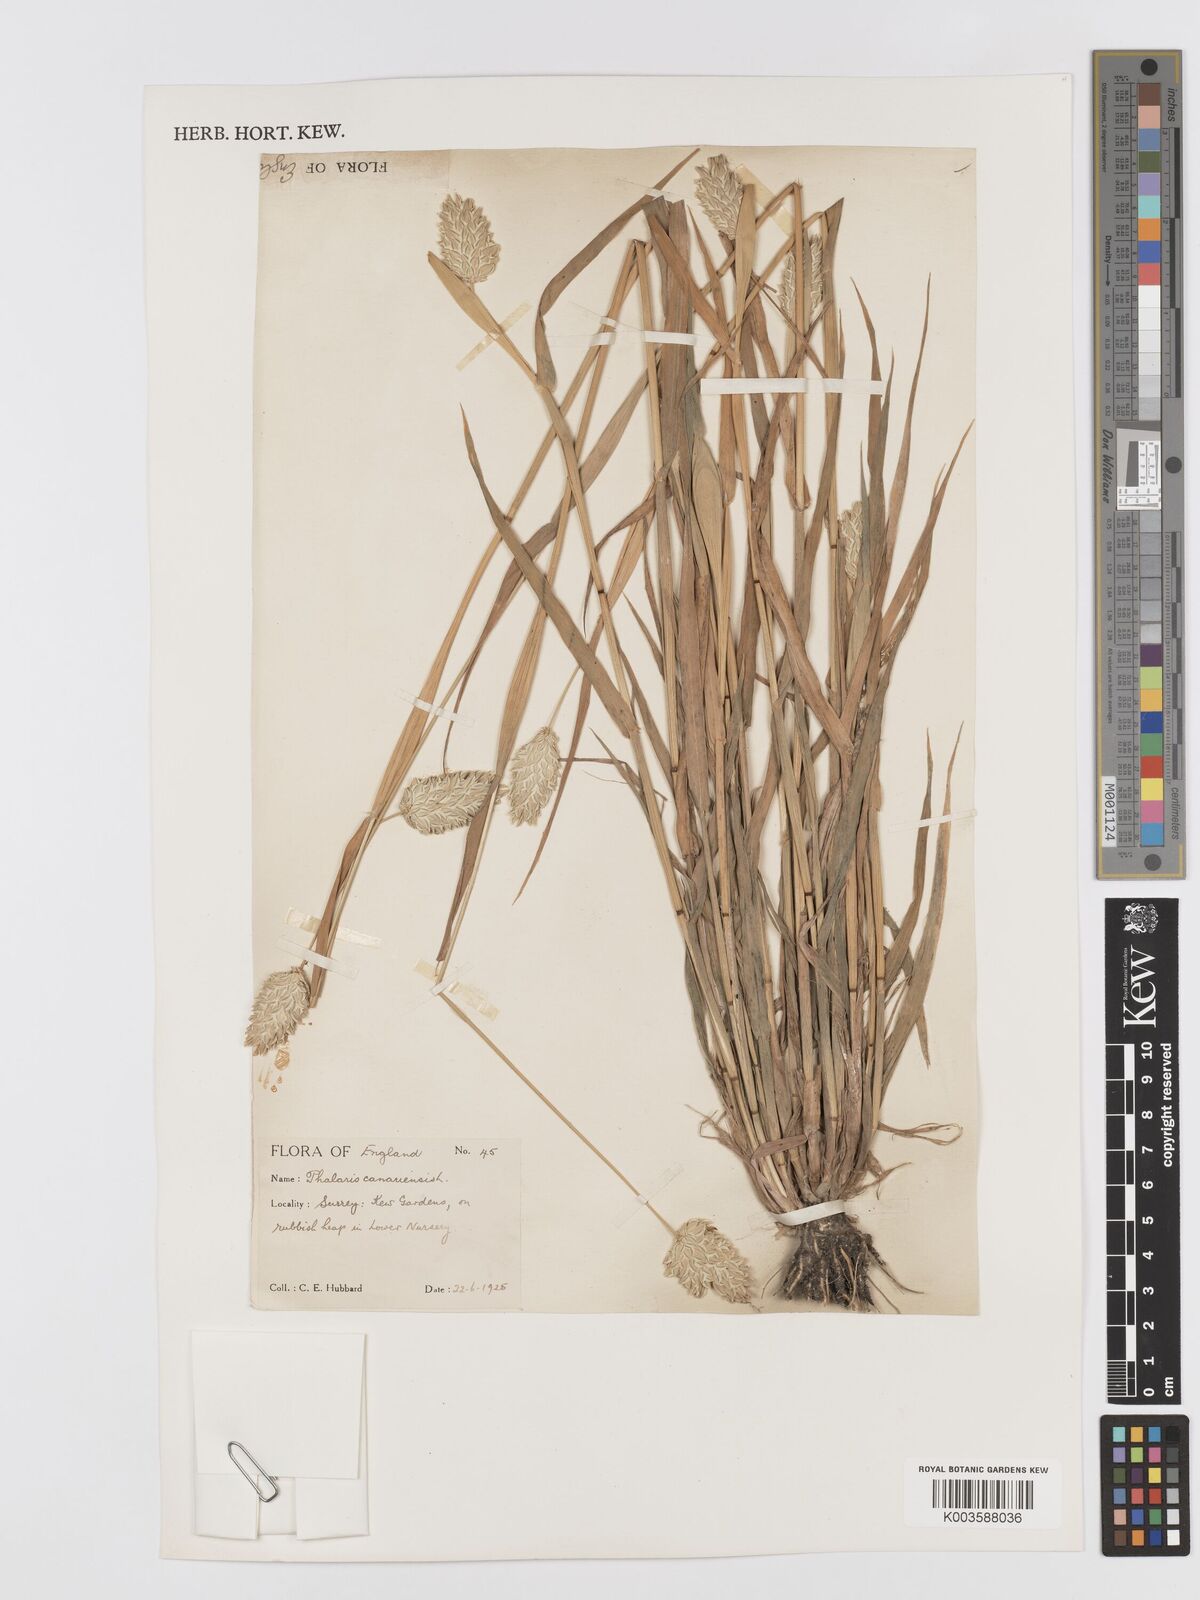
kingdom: Plantae
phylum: Tracheophyta
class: Liliopsida
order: Poales
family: Poaceae
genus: Phalaris
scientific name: Phalaris canariensis
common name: Annual canarygrass
